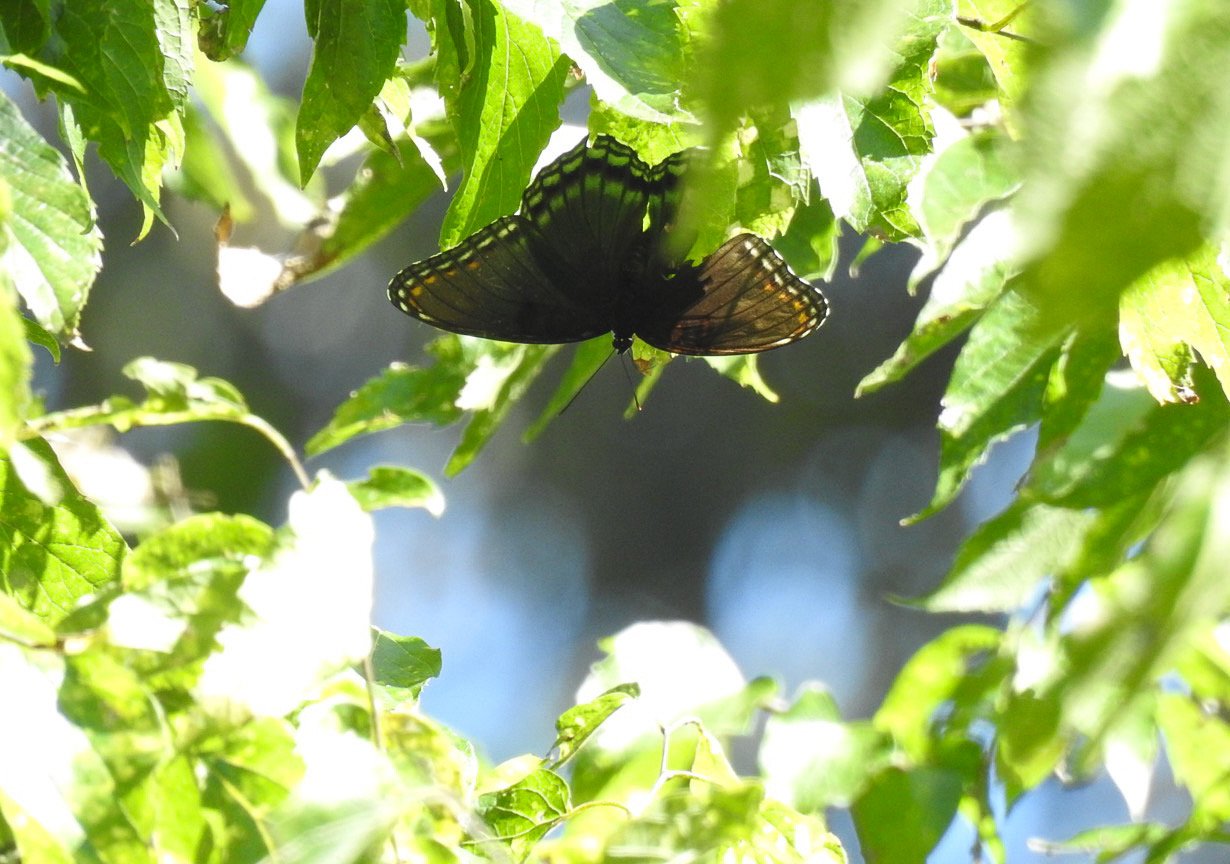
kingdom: Animalia
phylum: Arthropoda
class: Insecta
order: Lepidoptera
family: Nymphalidae
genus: Limenitis
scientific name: Limenitis arthemis
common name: Red-spotted Admiral
